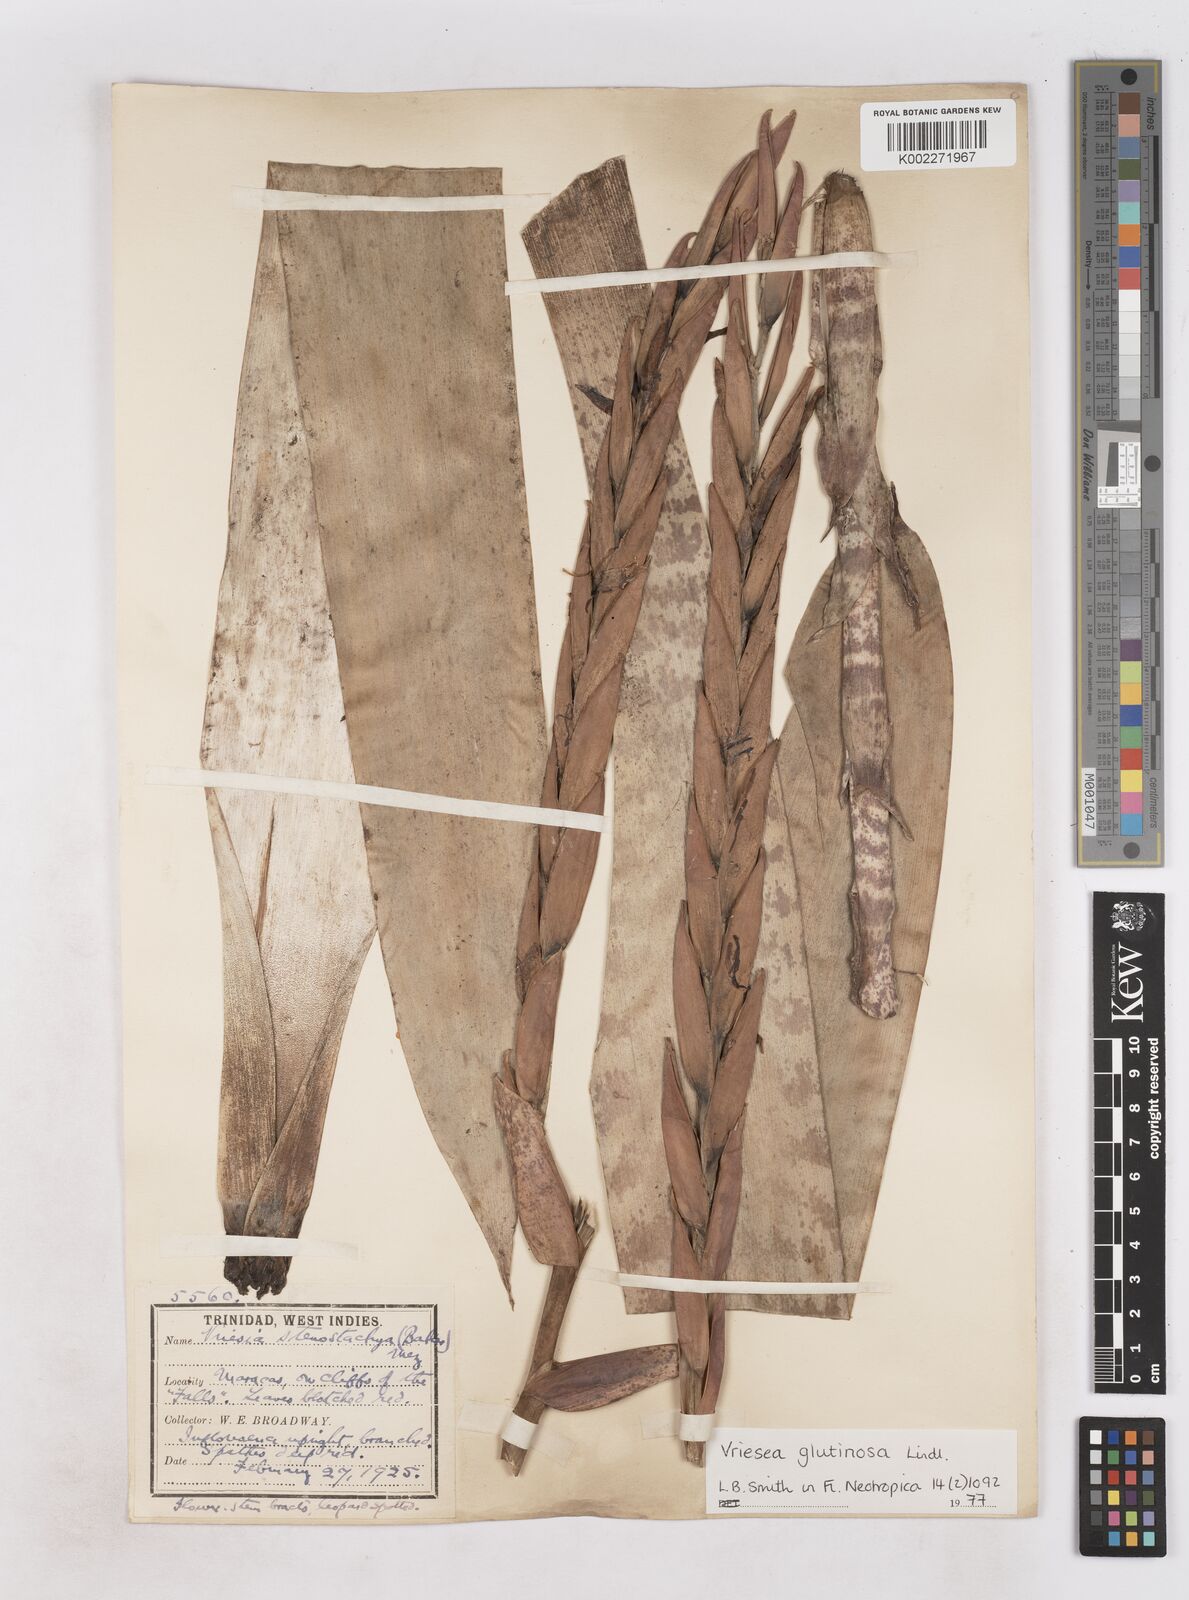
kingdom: Plantae
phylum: Tracheophyta
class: Liliopsida
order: Poales
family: Bromeliaceae
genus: Vriesea
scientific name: Vriesea
